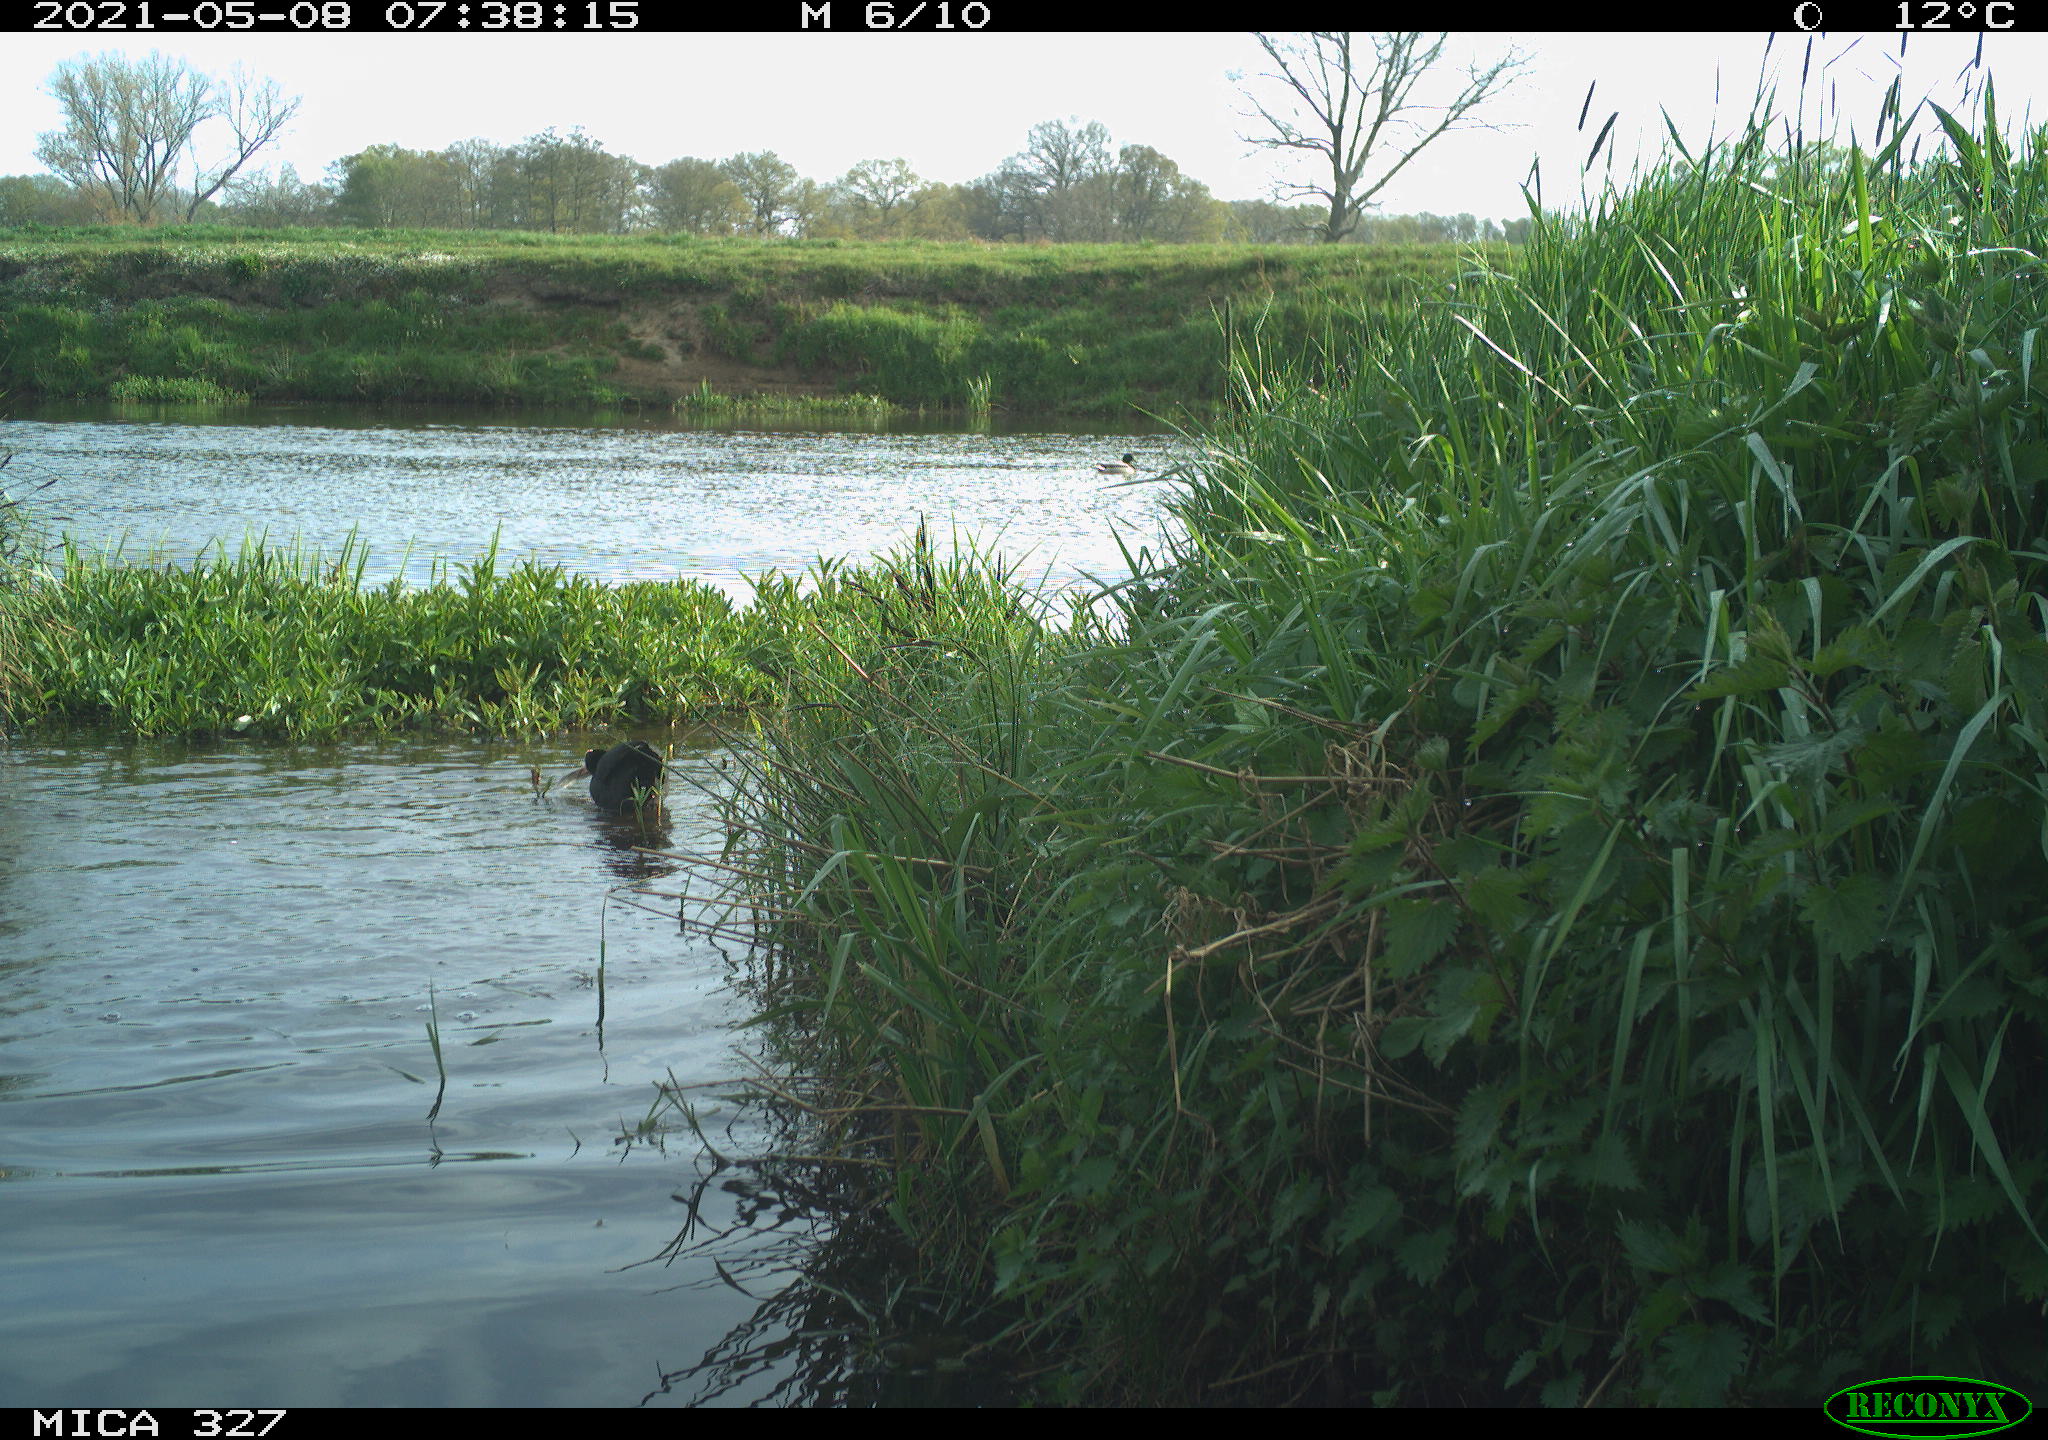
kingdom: Animalia
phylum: Chordata
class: Aves
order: Gruiformes
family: Rallidae
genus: Fulica
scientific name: Fulica atra
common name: Eurasian coot
